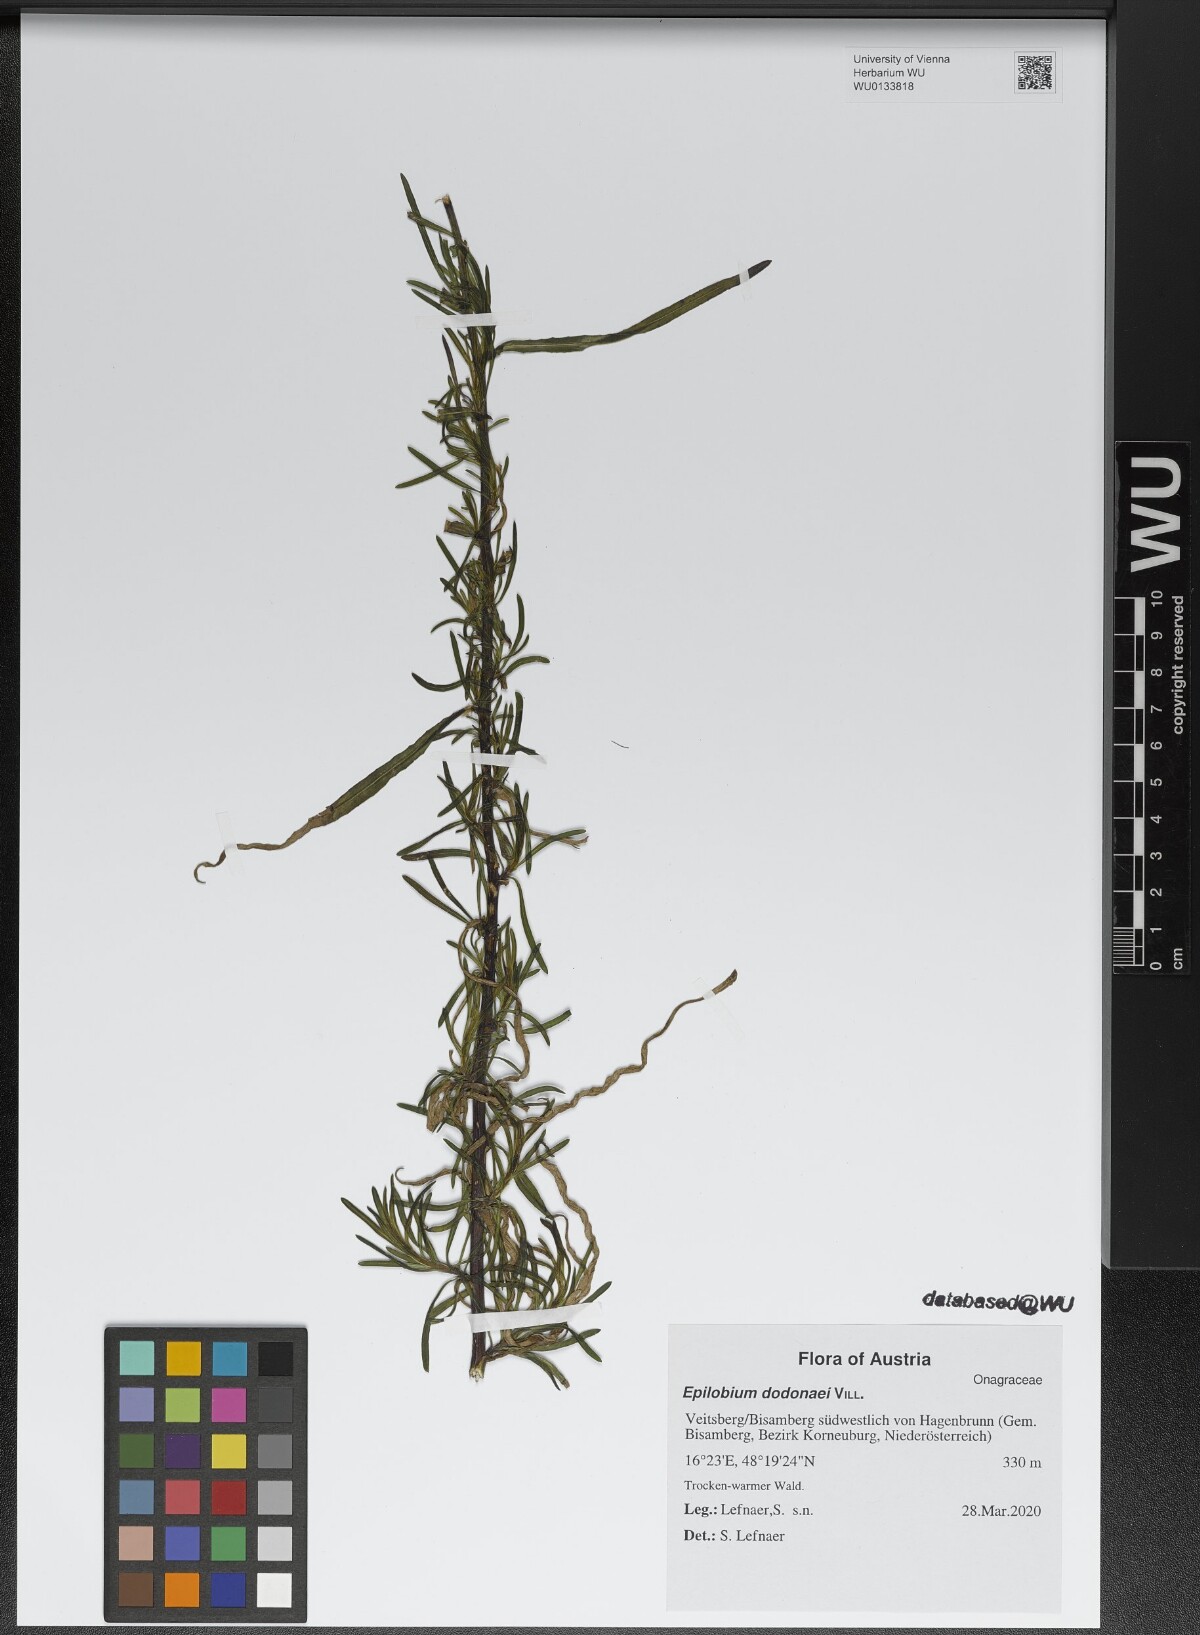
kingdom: Plantae
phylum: Tracheophyta
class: Magnoliopsida
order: Myrtales
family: Onagraceae
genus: Chamaenerion
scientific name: Chamaenerion dodonaei
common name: Rosemary-leaved willowherb
